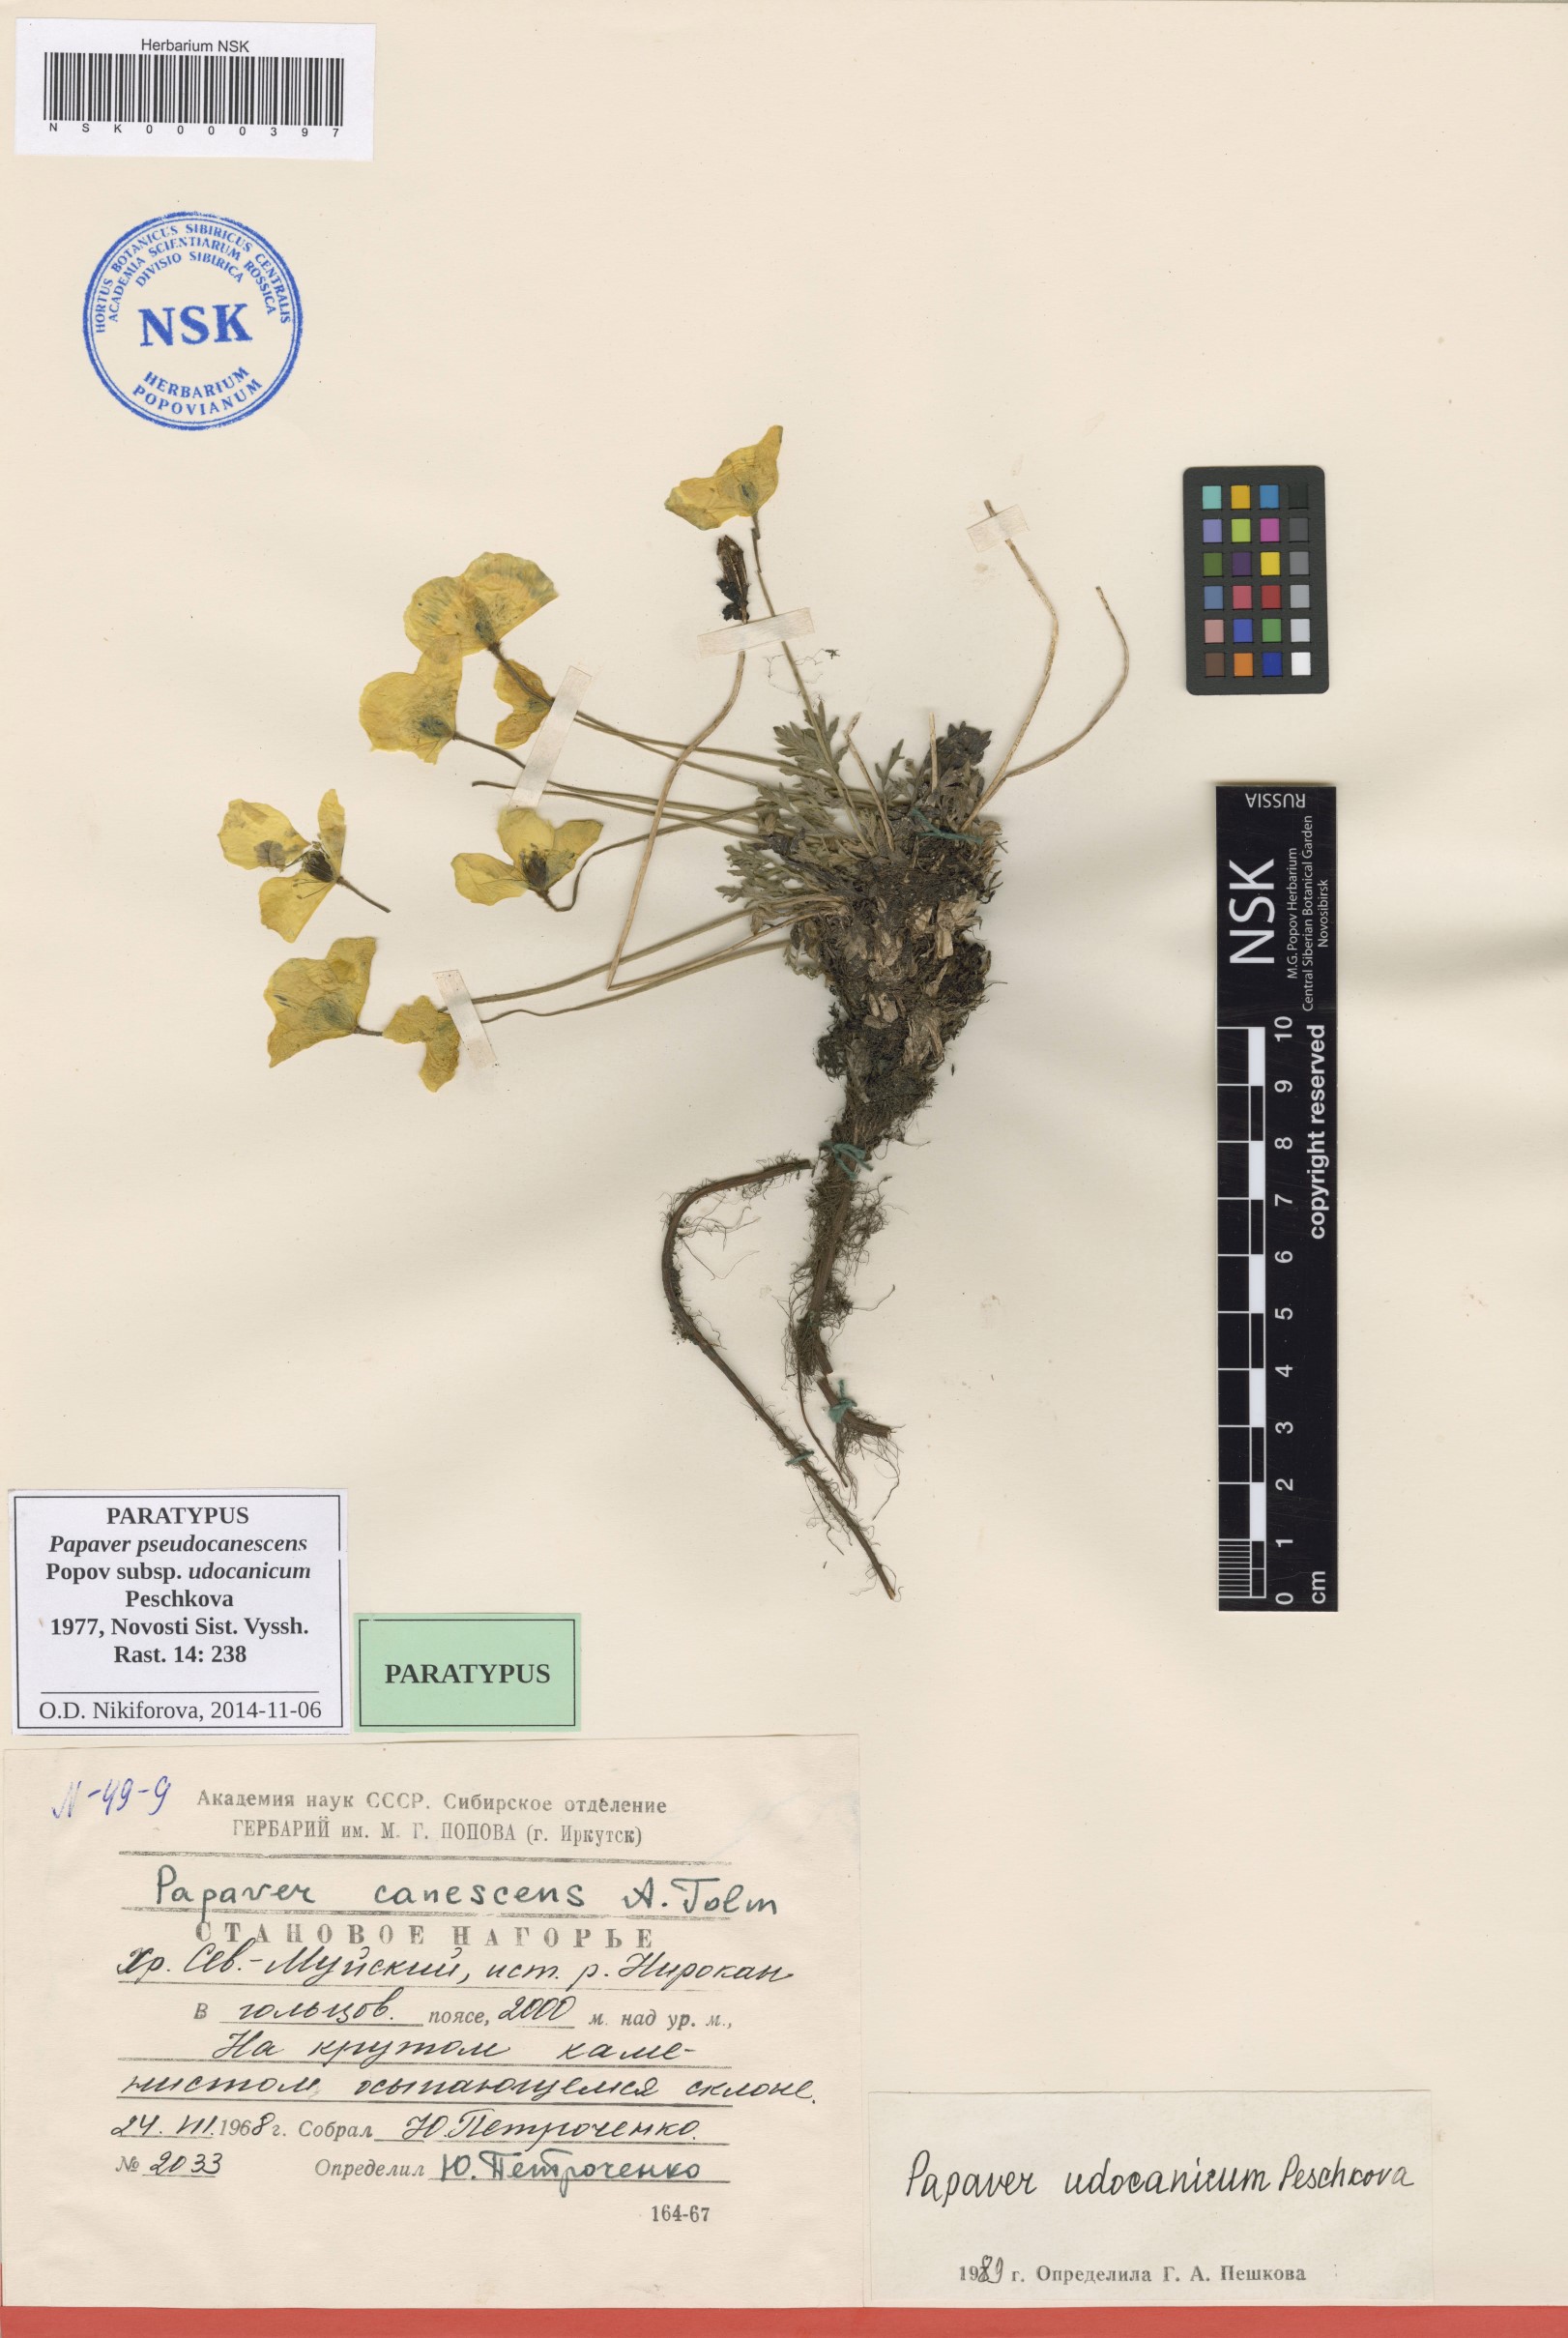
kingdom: Plantae
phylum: Tracheophyta
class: Magnoliopsida
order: Ranunculales
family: Papaveraceae
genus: Papaver
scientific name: Papaver udocanicum
